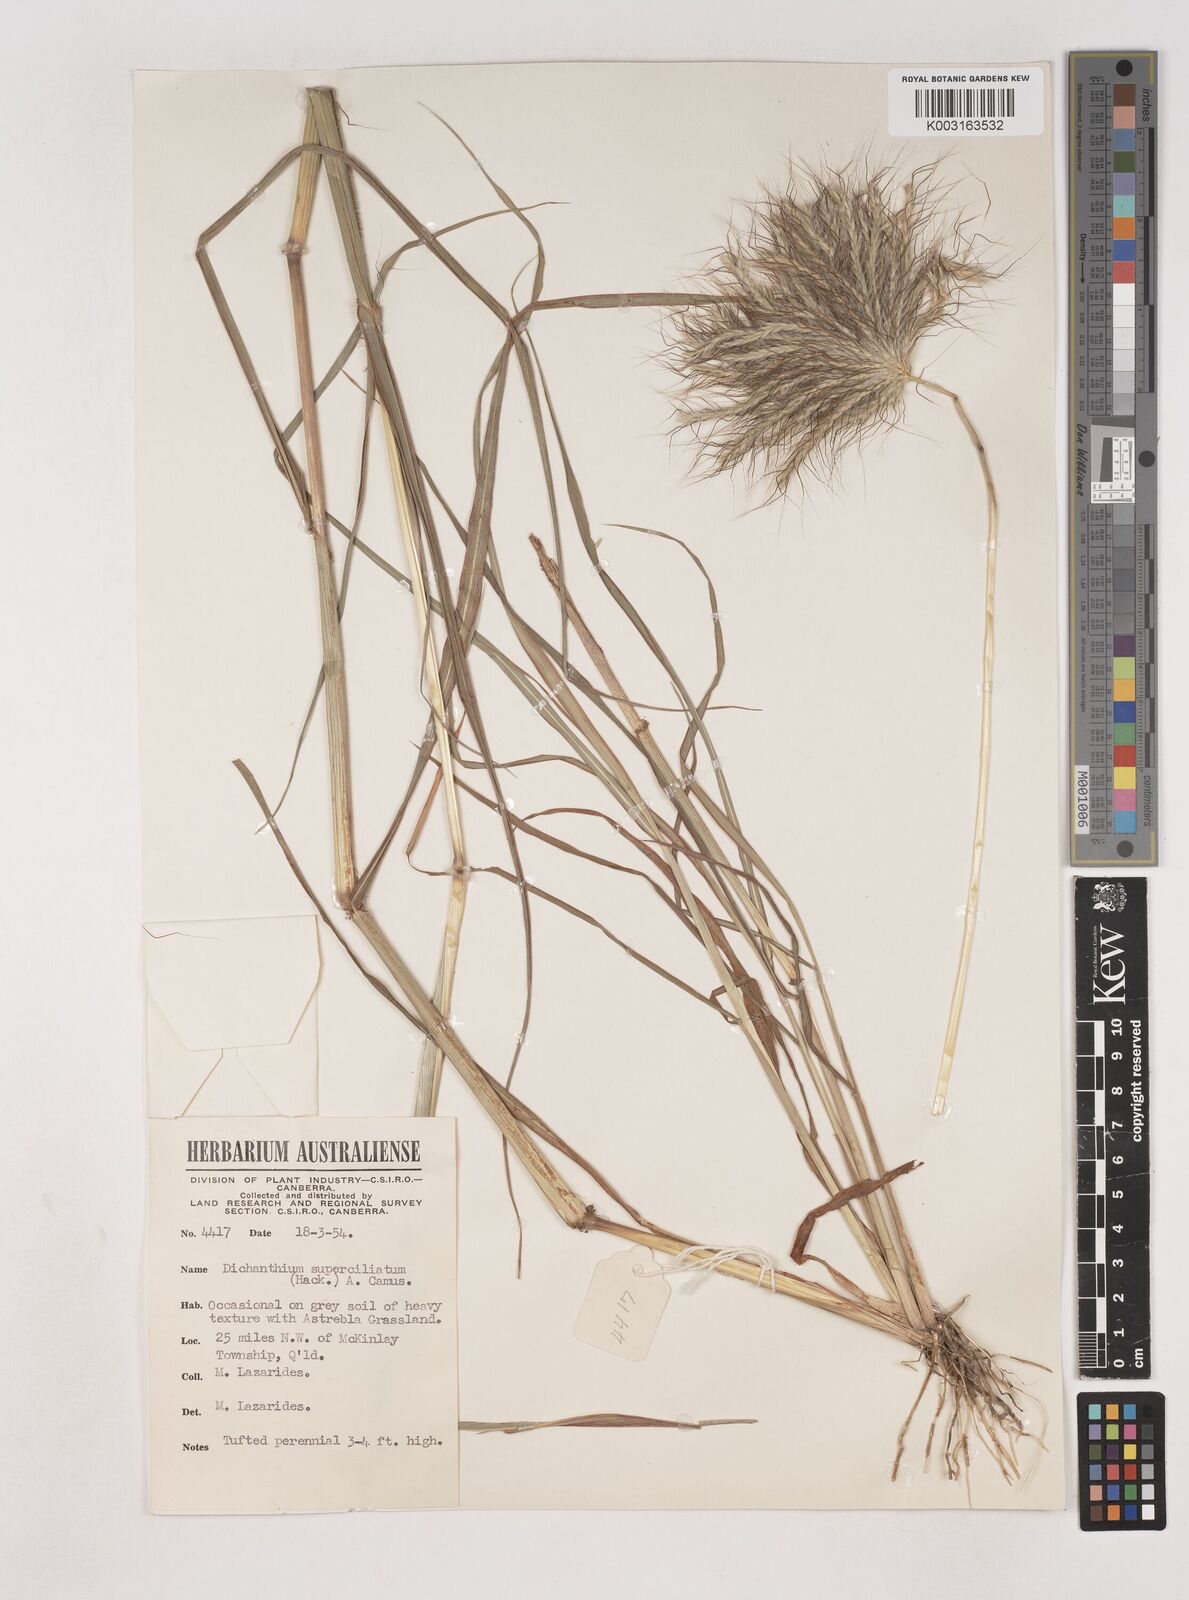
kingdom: Plantae
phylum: Tracheophyta
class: Liliopsida
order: Poales
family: Poaceae
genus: Dichanthium
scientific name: Dichanthium sericeum
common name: Silky bluestem
